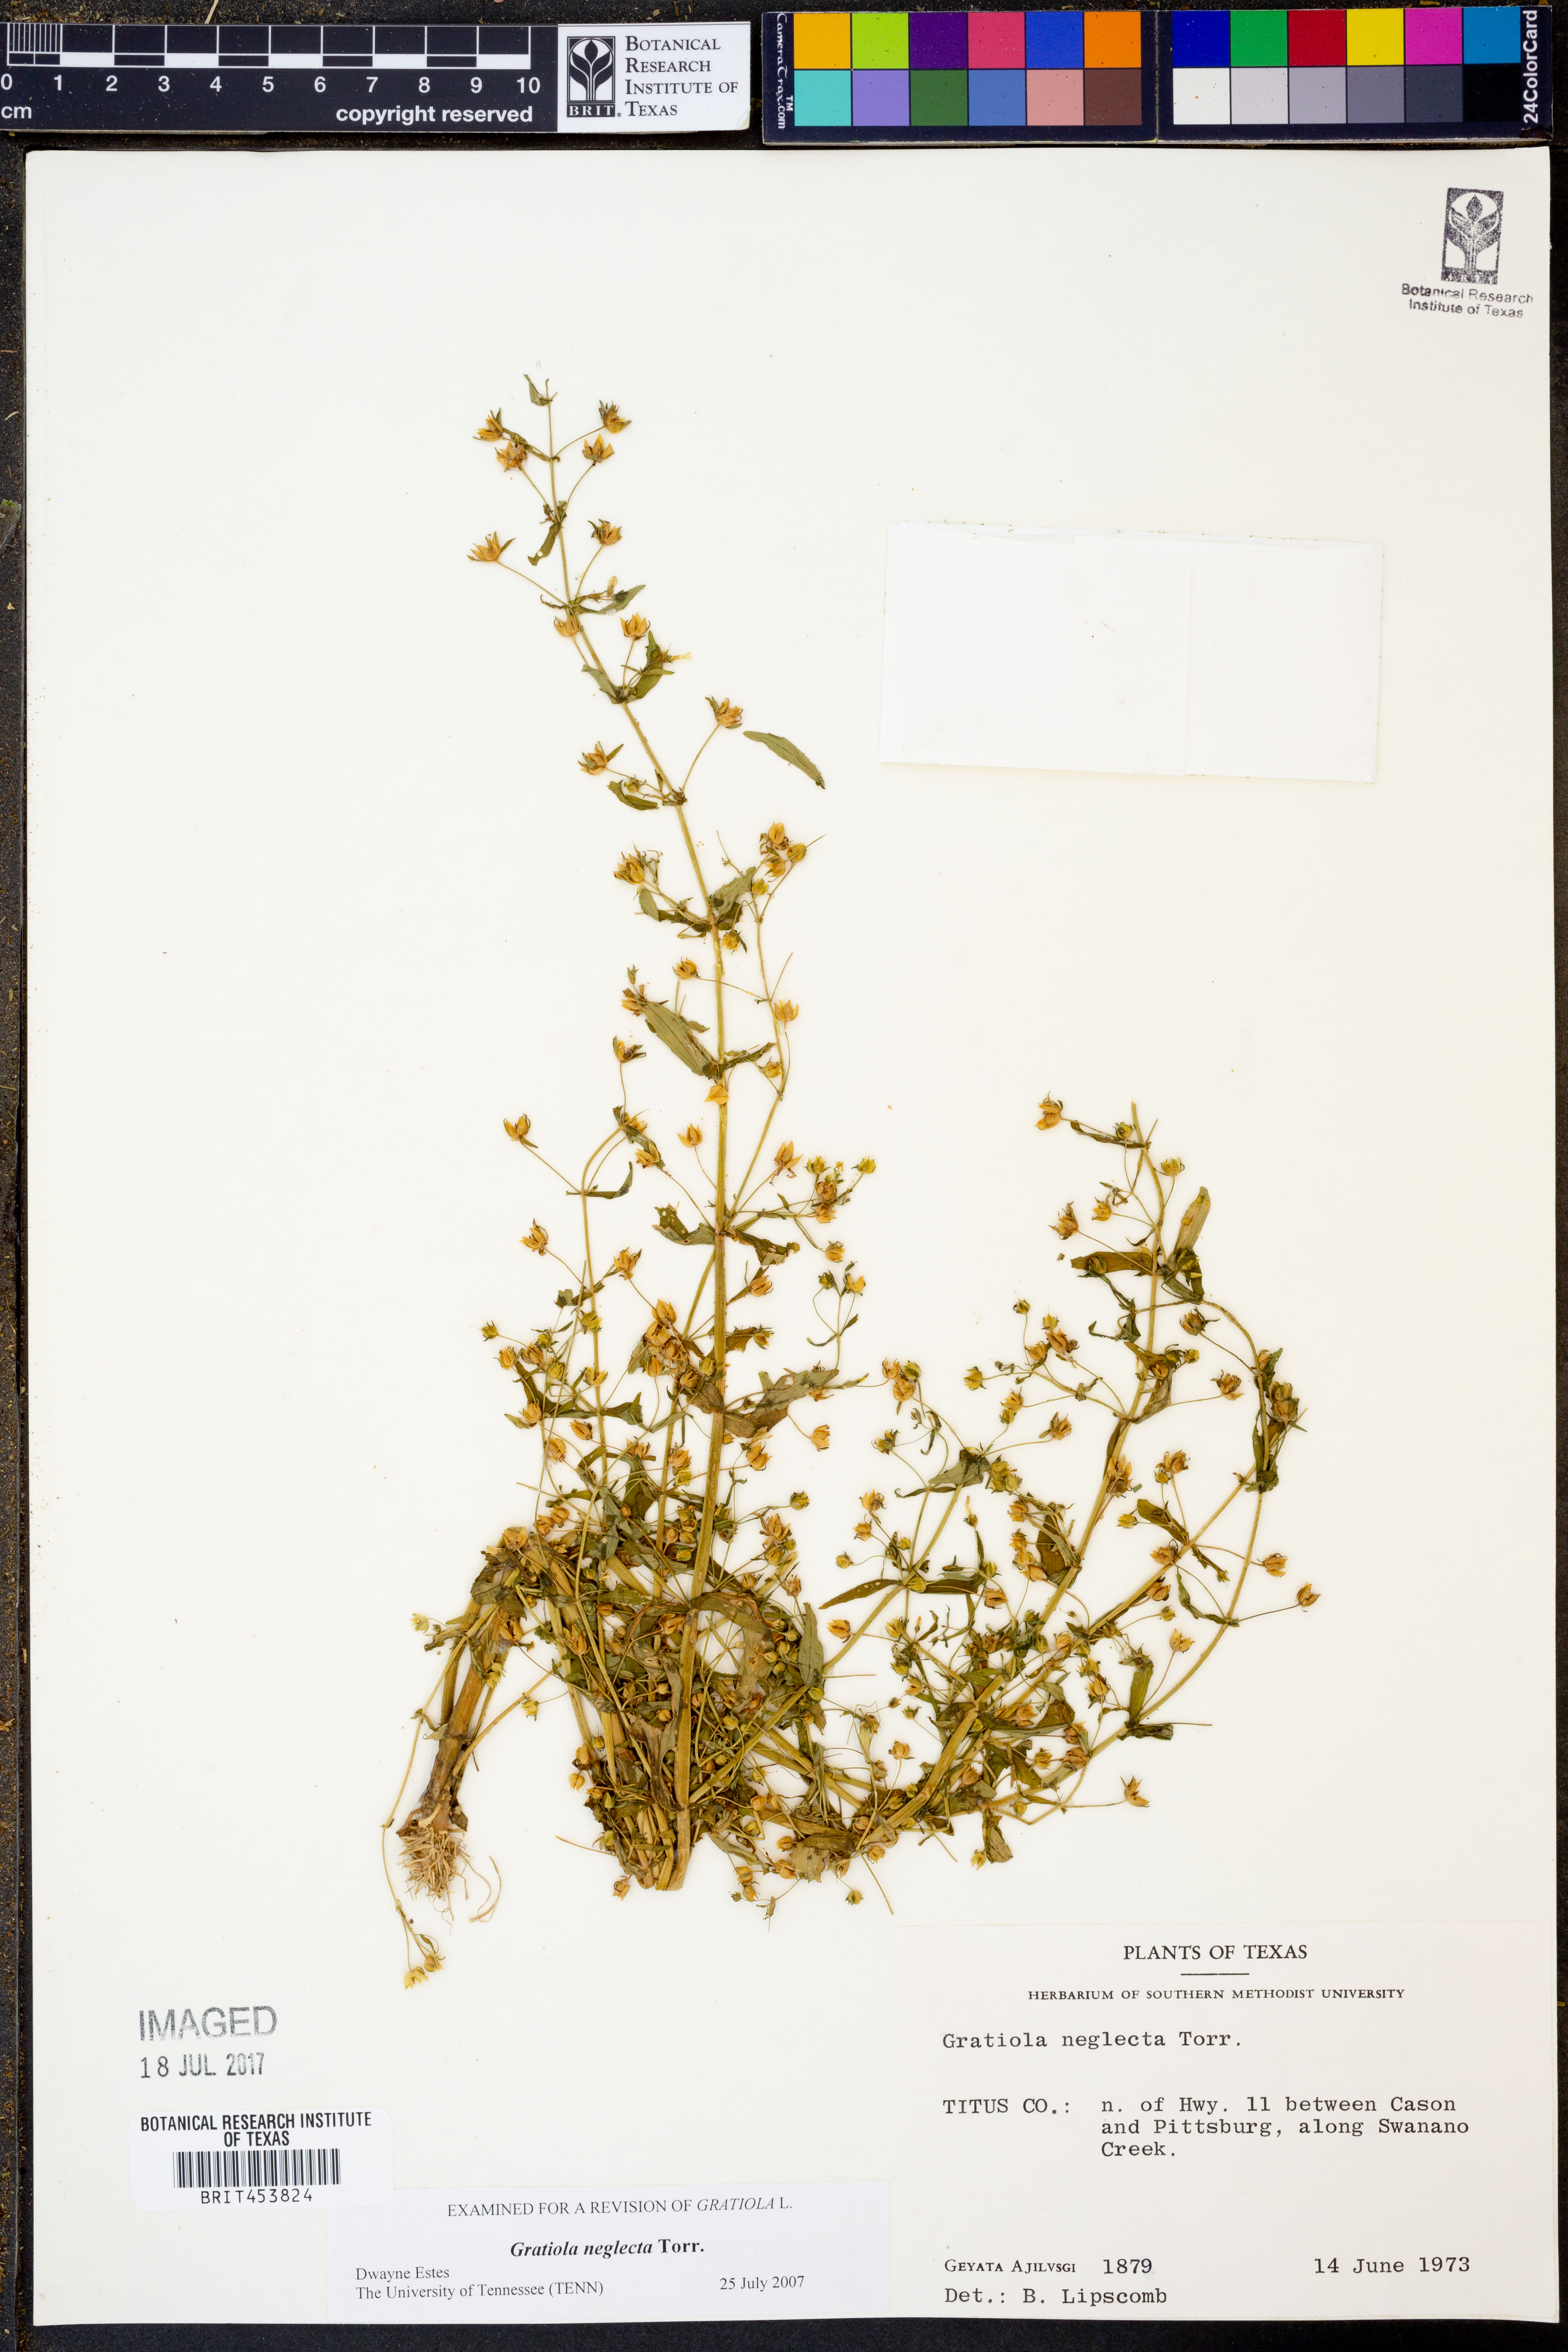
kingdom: Plantae
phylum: Tracheophyta
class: Magnoliopsida
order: Lamiales
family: Plantaginaceae
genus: Gratiola
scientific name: Gratiola neglecta
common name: American hedge-hyssop
